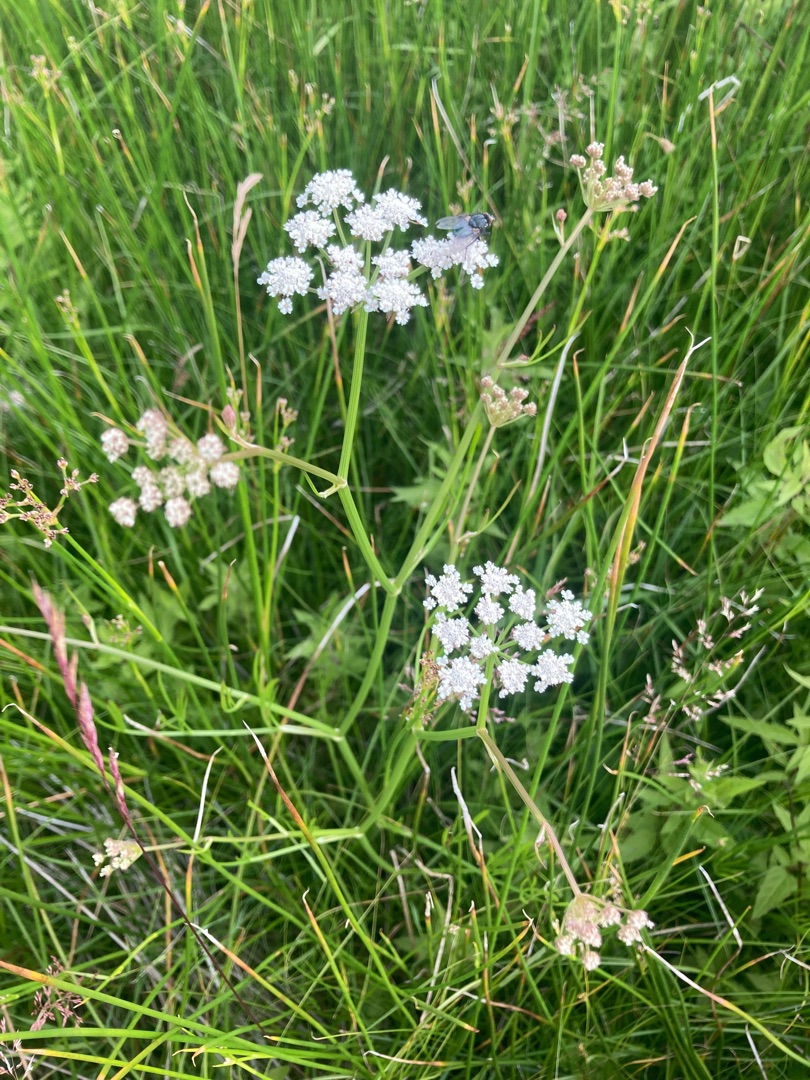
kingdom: Plantae
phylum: Tracheophyta
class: Magnoliopsida
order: Apiales
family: Apiaceae
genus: Oenanthe
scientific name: Oenanthe lachenalii
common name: Eng-klaseskærm
